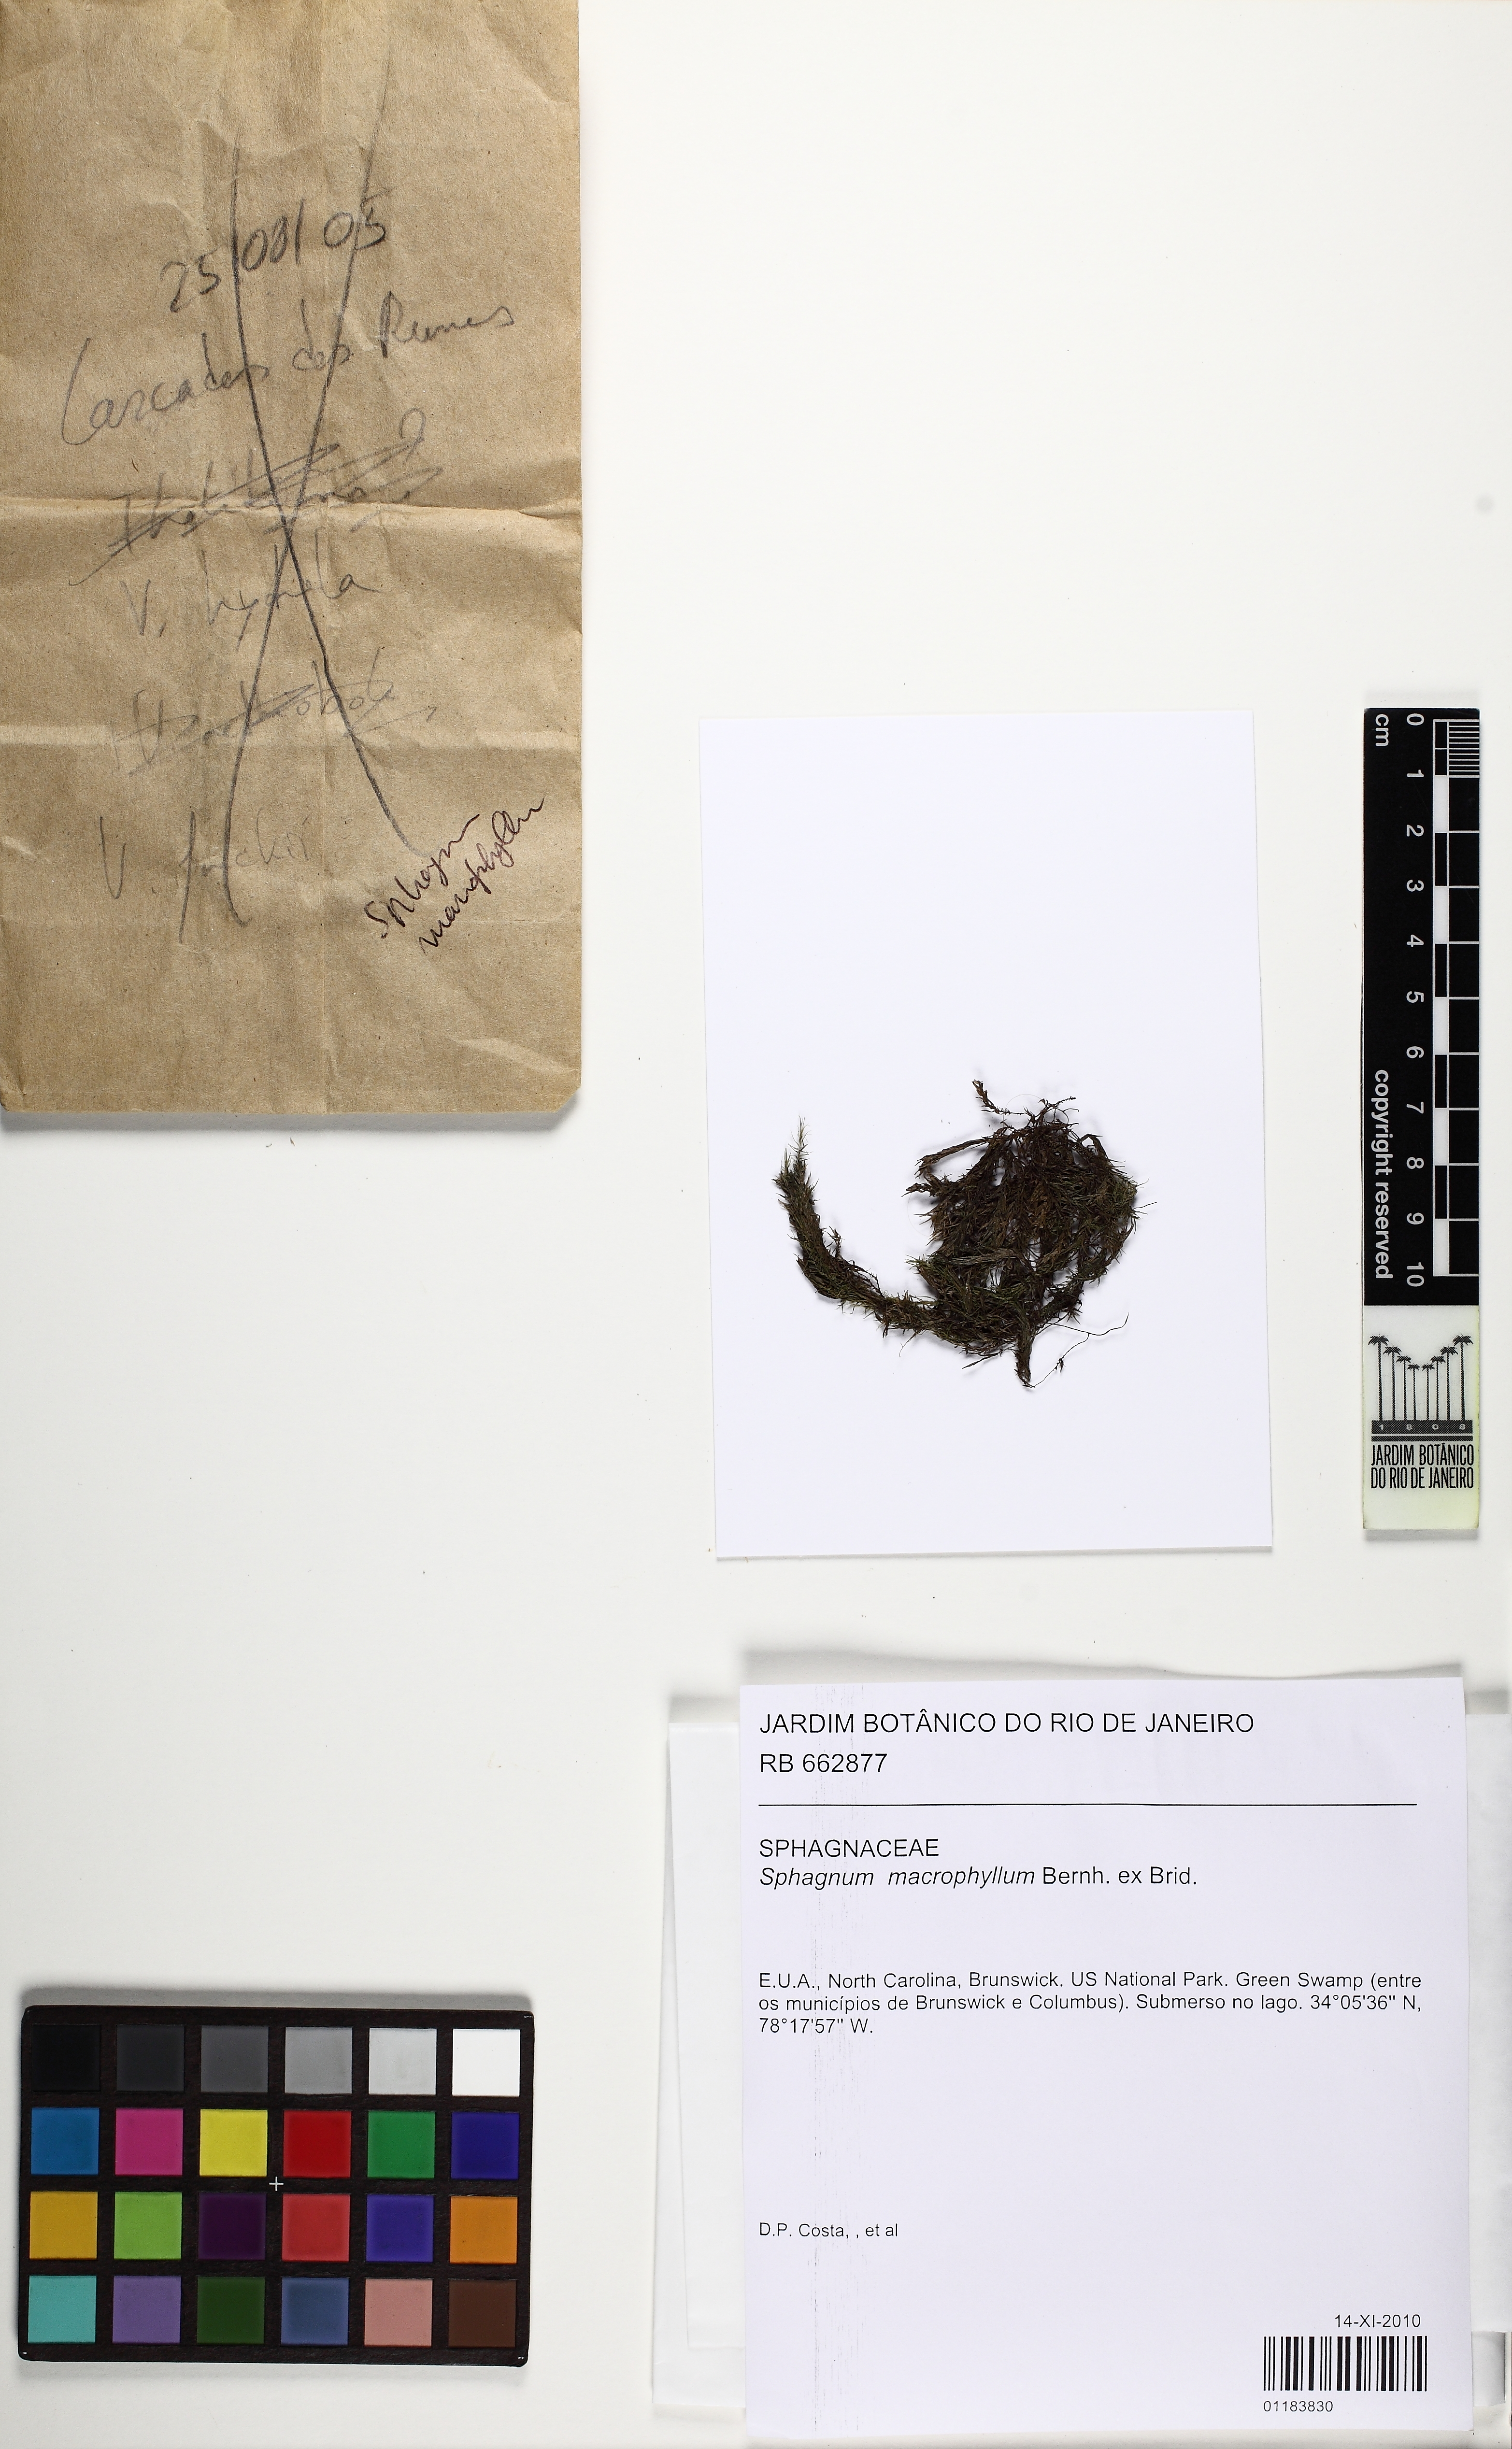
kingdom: Plantae
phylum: Bryophyta
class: Sphagnopsida
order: Sphagnales
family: Sphagnaceae
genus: Sphagnum
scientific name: Sphagnum macrophyllum
